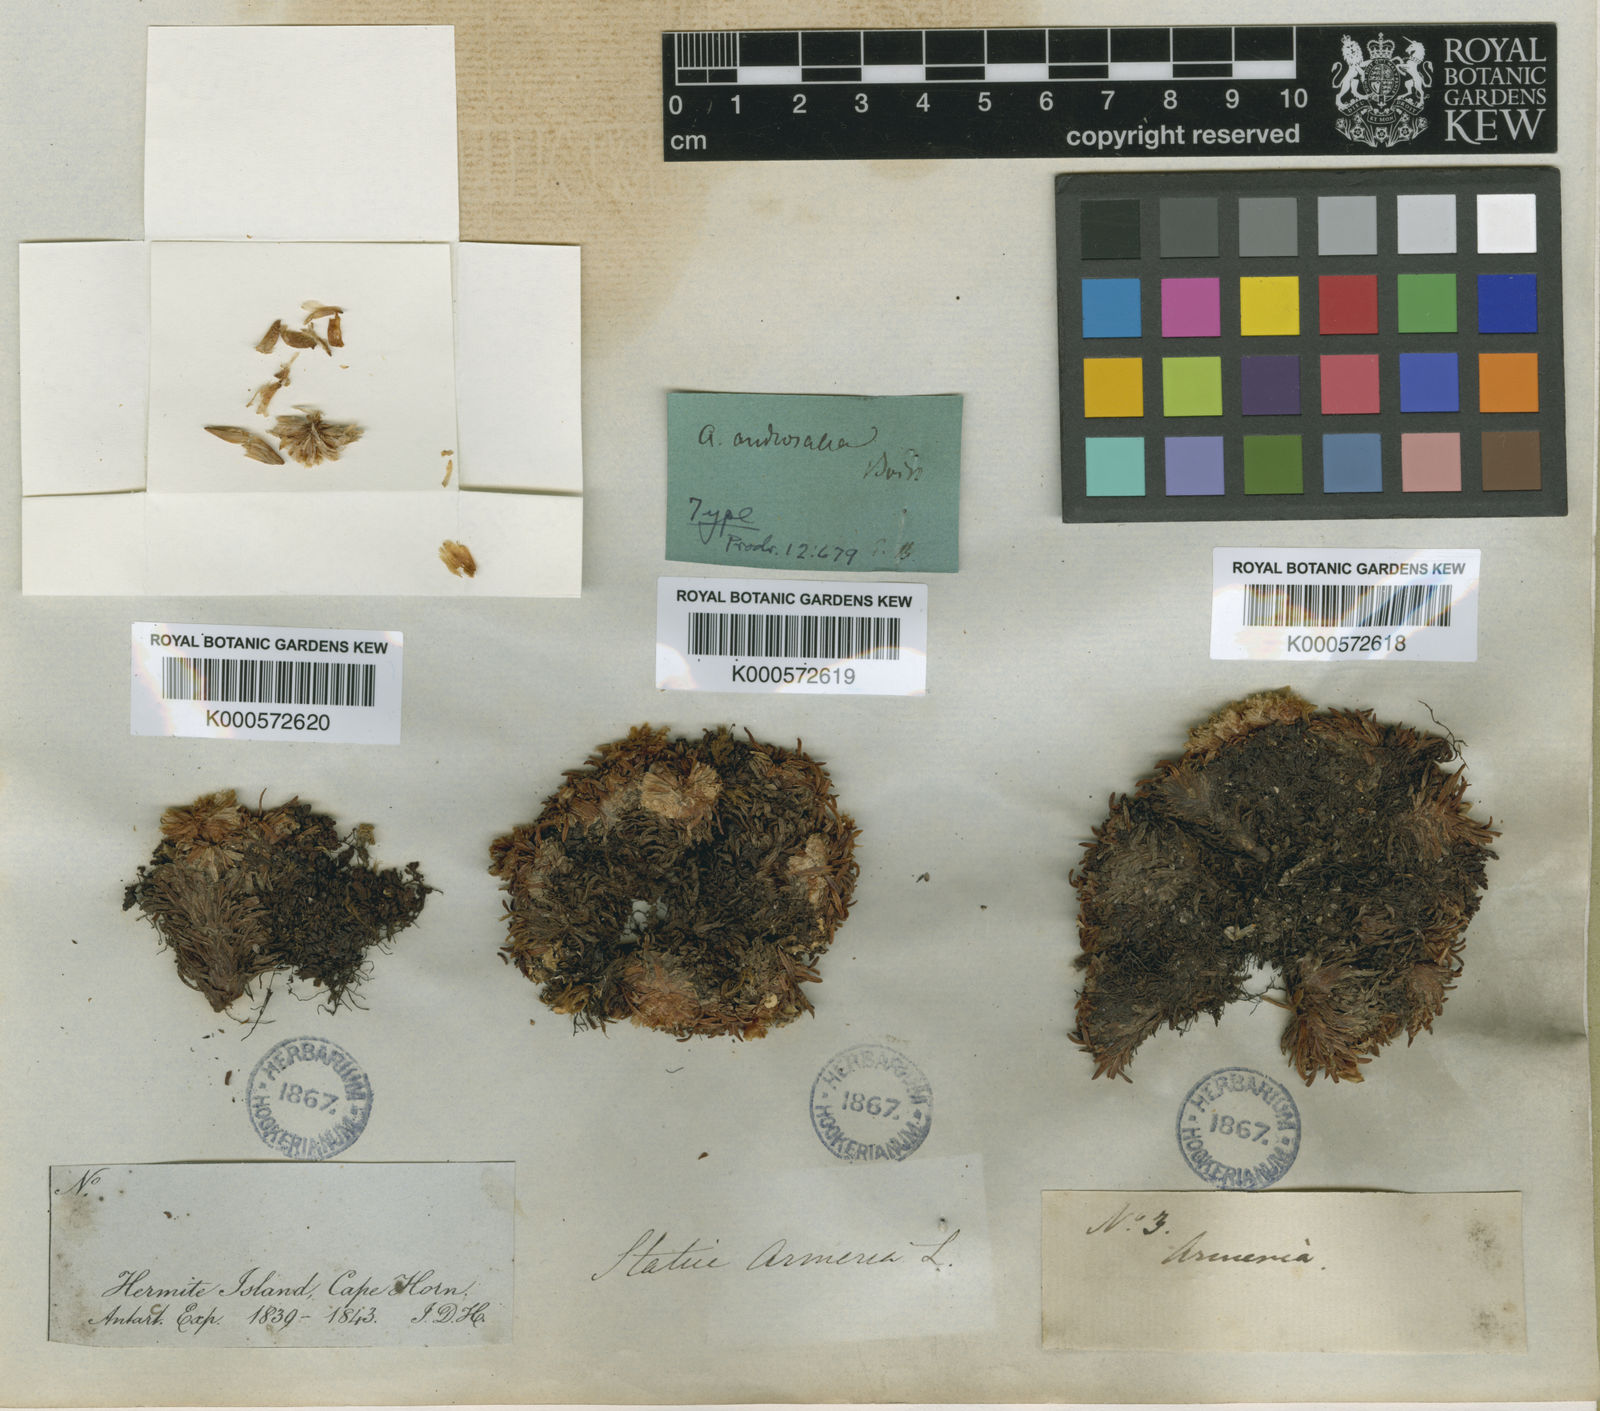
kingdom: Plantae
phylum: Tracheophyta
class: Magnoliopsida
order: Caryophyllales
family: Plumbaginaceae
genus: Armeria
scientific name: Armeria curvifolia
